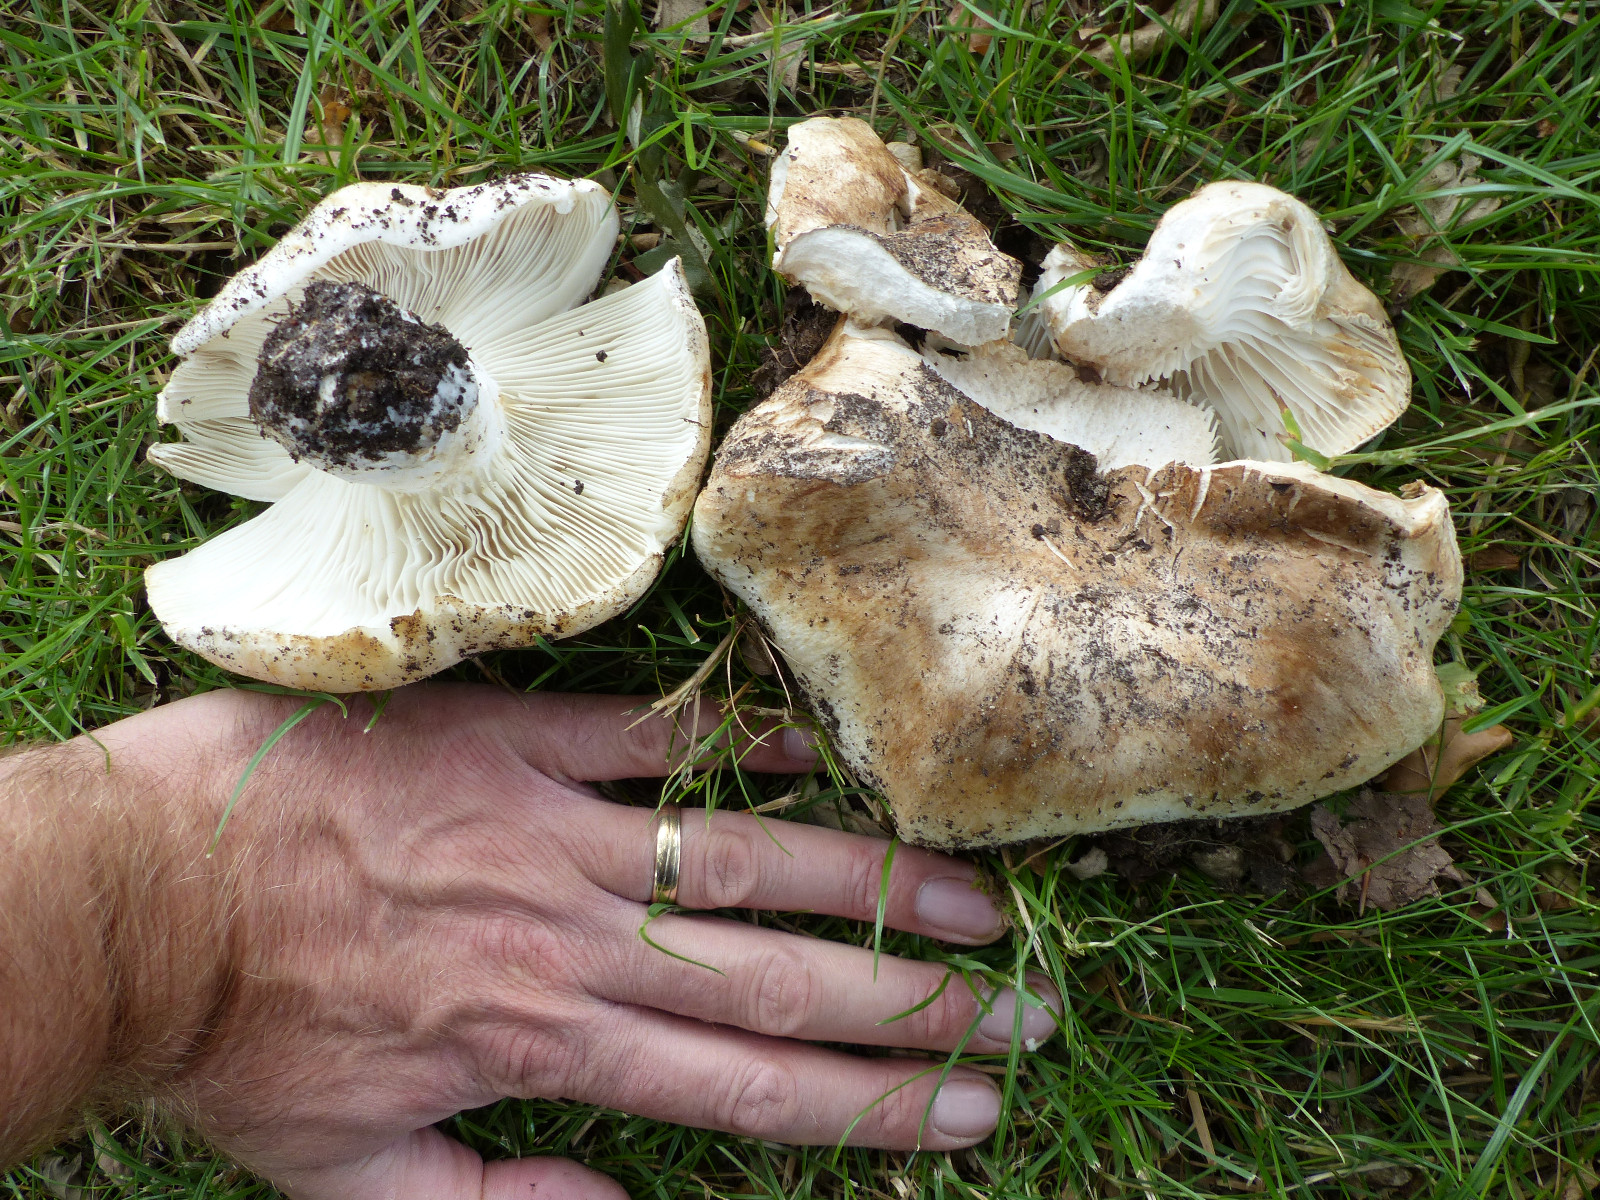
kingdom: Fungi
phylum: Basidiomycota
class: Agaricomycetes
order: Russulales
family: Russulaceae
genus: Russula
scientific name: Russula delica
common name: almindelig tragt-skørhat
